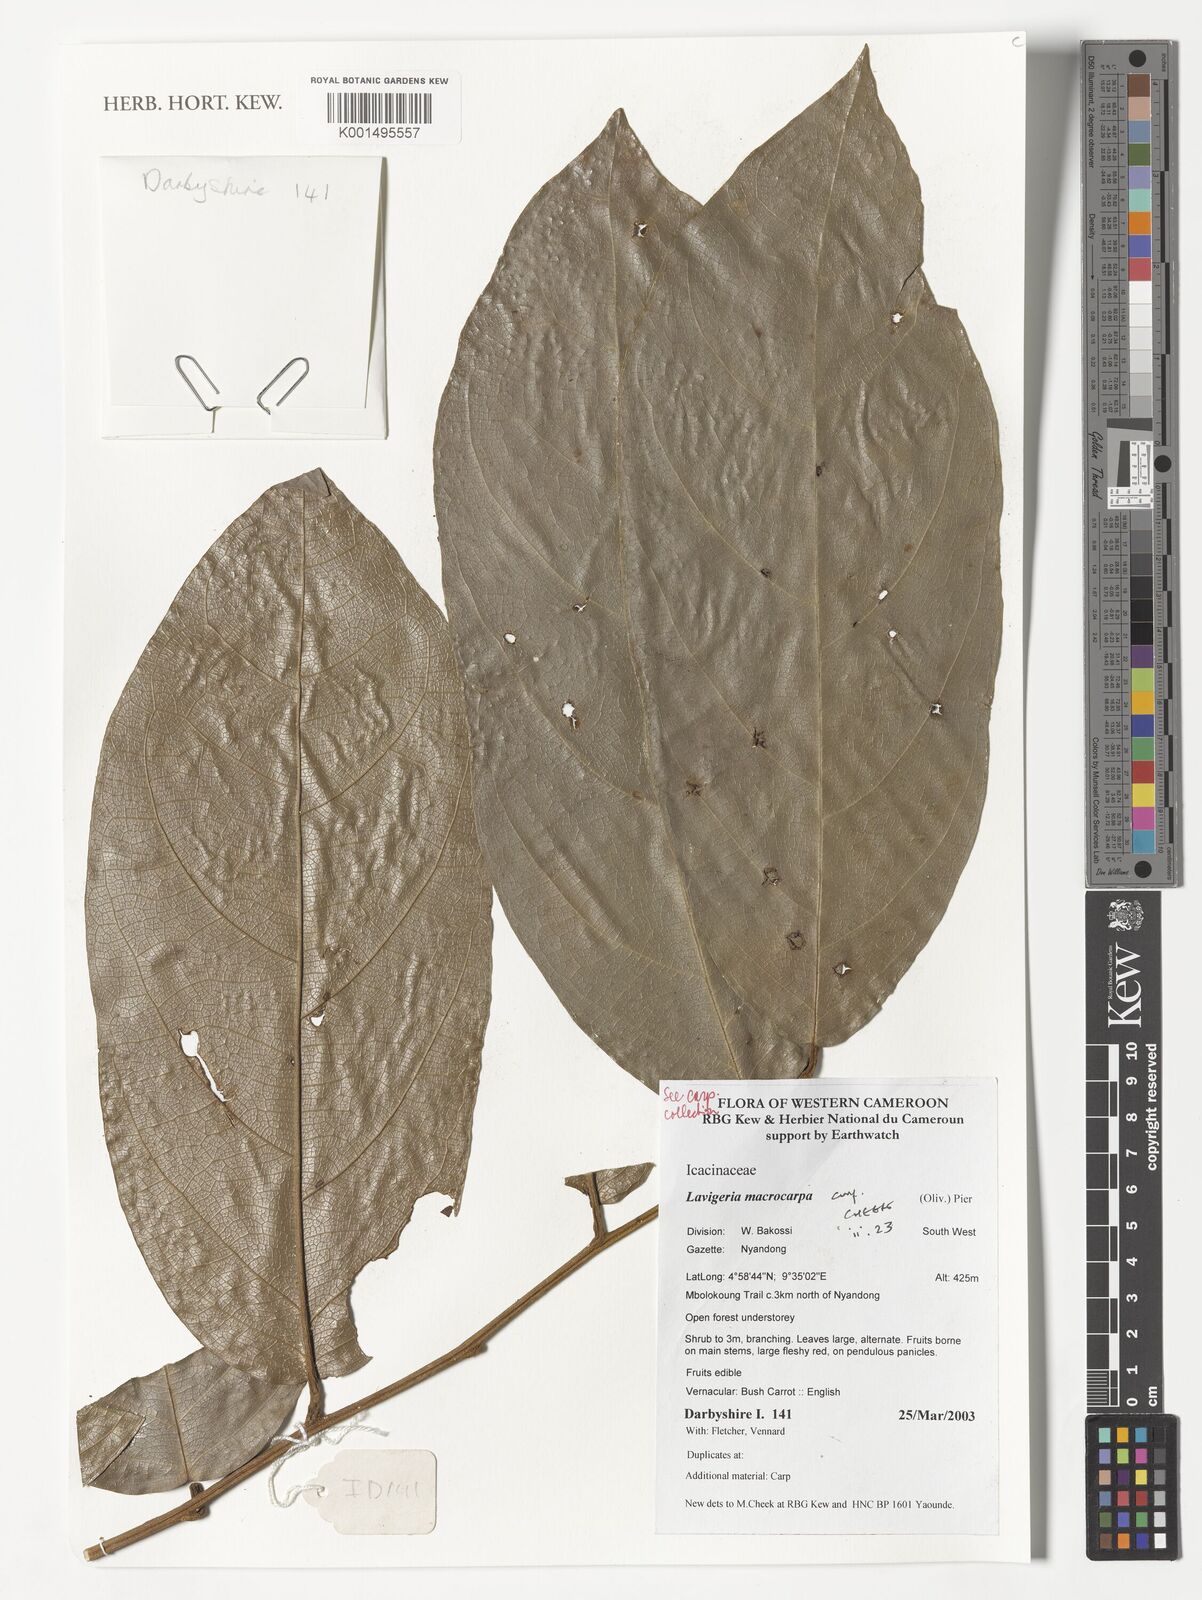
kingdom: Plantae
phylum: Tracheophyta
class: Magnoliopsida
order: Icacinales
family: Icacinaceae
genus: Lavigeria
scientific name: Lavigeria macrocarpa
